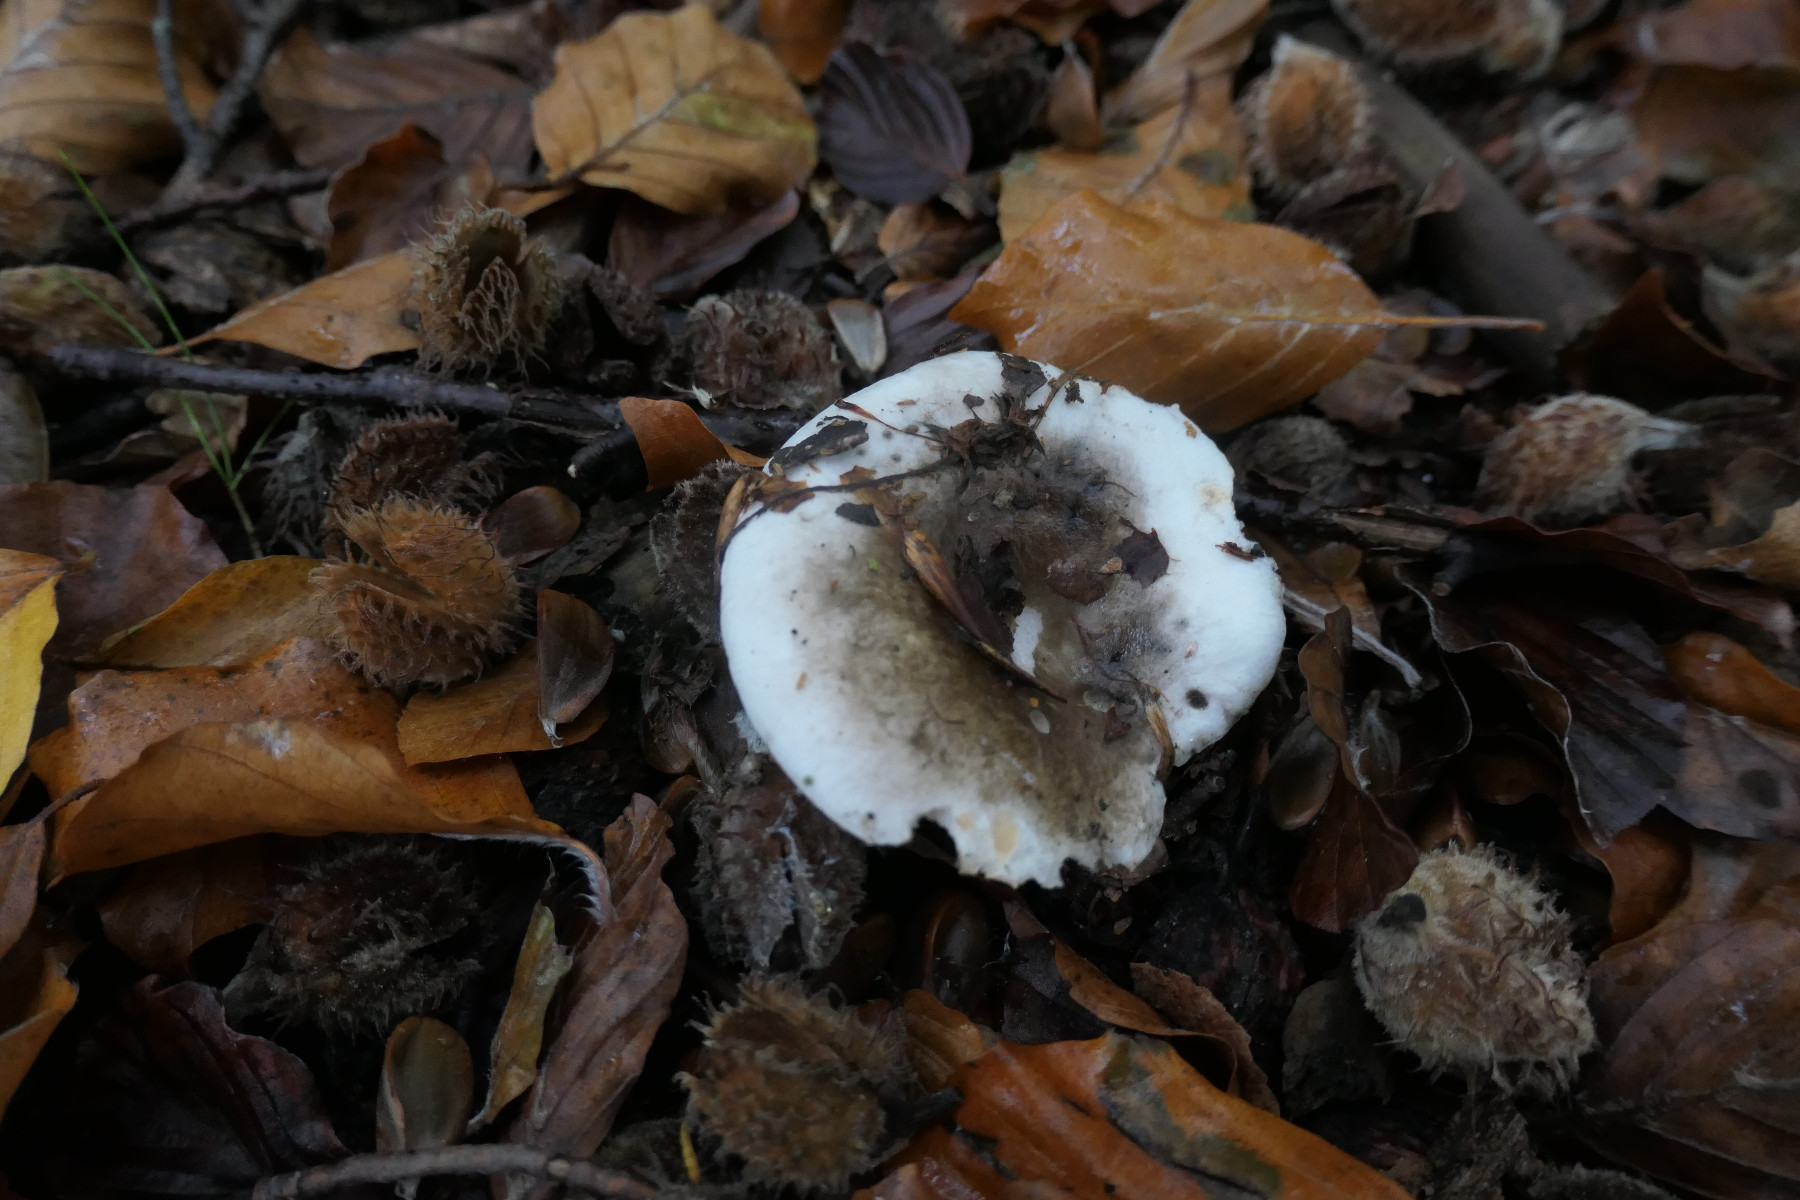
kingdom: Fungi
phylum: Basidiomycota
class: Agaricomycetes
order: Russulales
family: Russulaceae
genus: Russula
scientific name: Russula densifolia
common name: tætbladet skørhat
